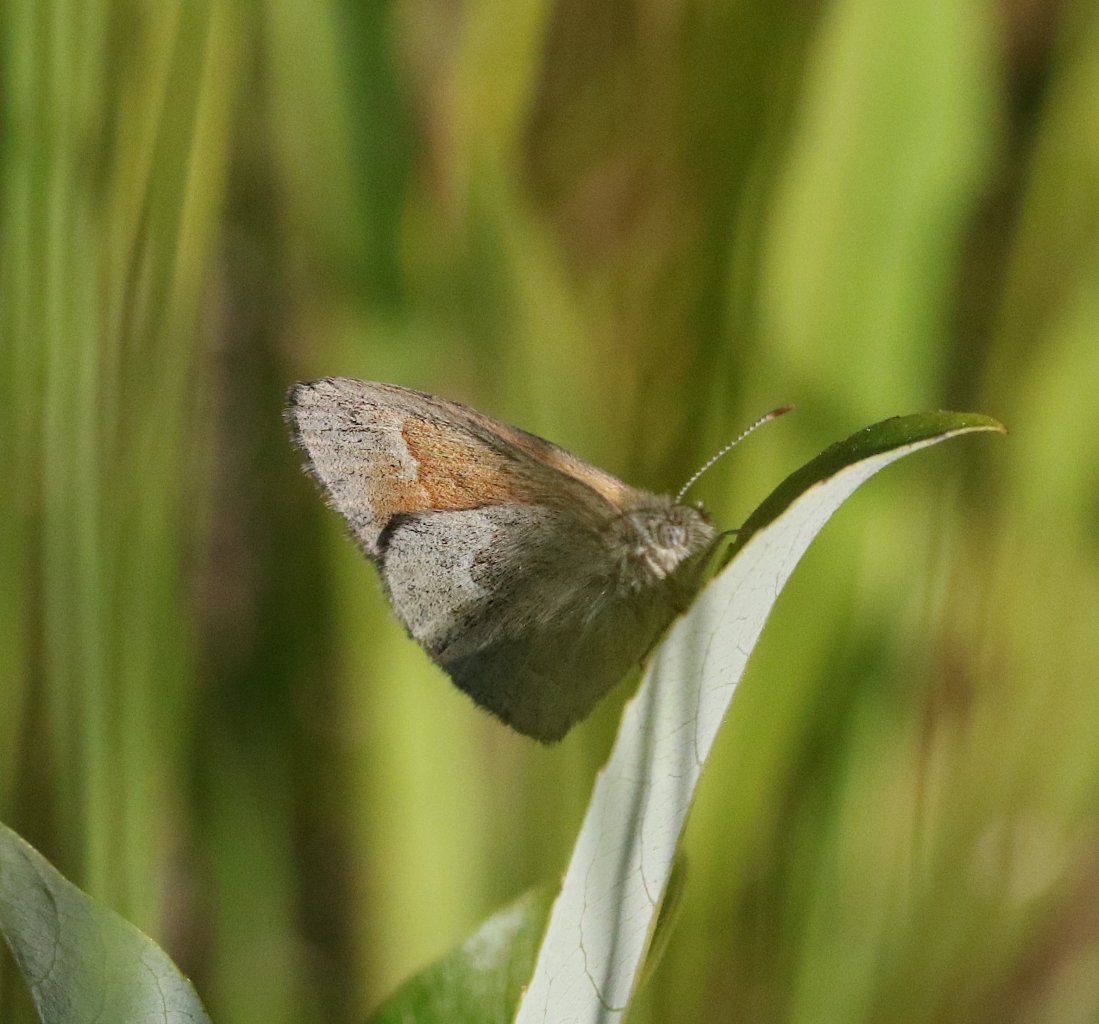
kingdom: Animalia
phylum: Arthropoda
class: Insecta
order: Lepidoptera
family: Nymphalidae
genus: Coenonympha
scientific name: Coenonympha tullia
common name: Large Heath
